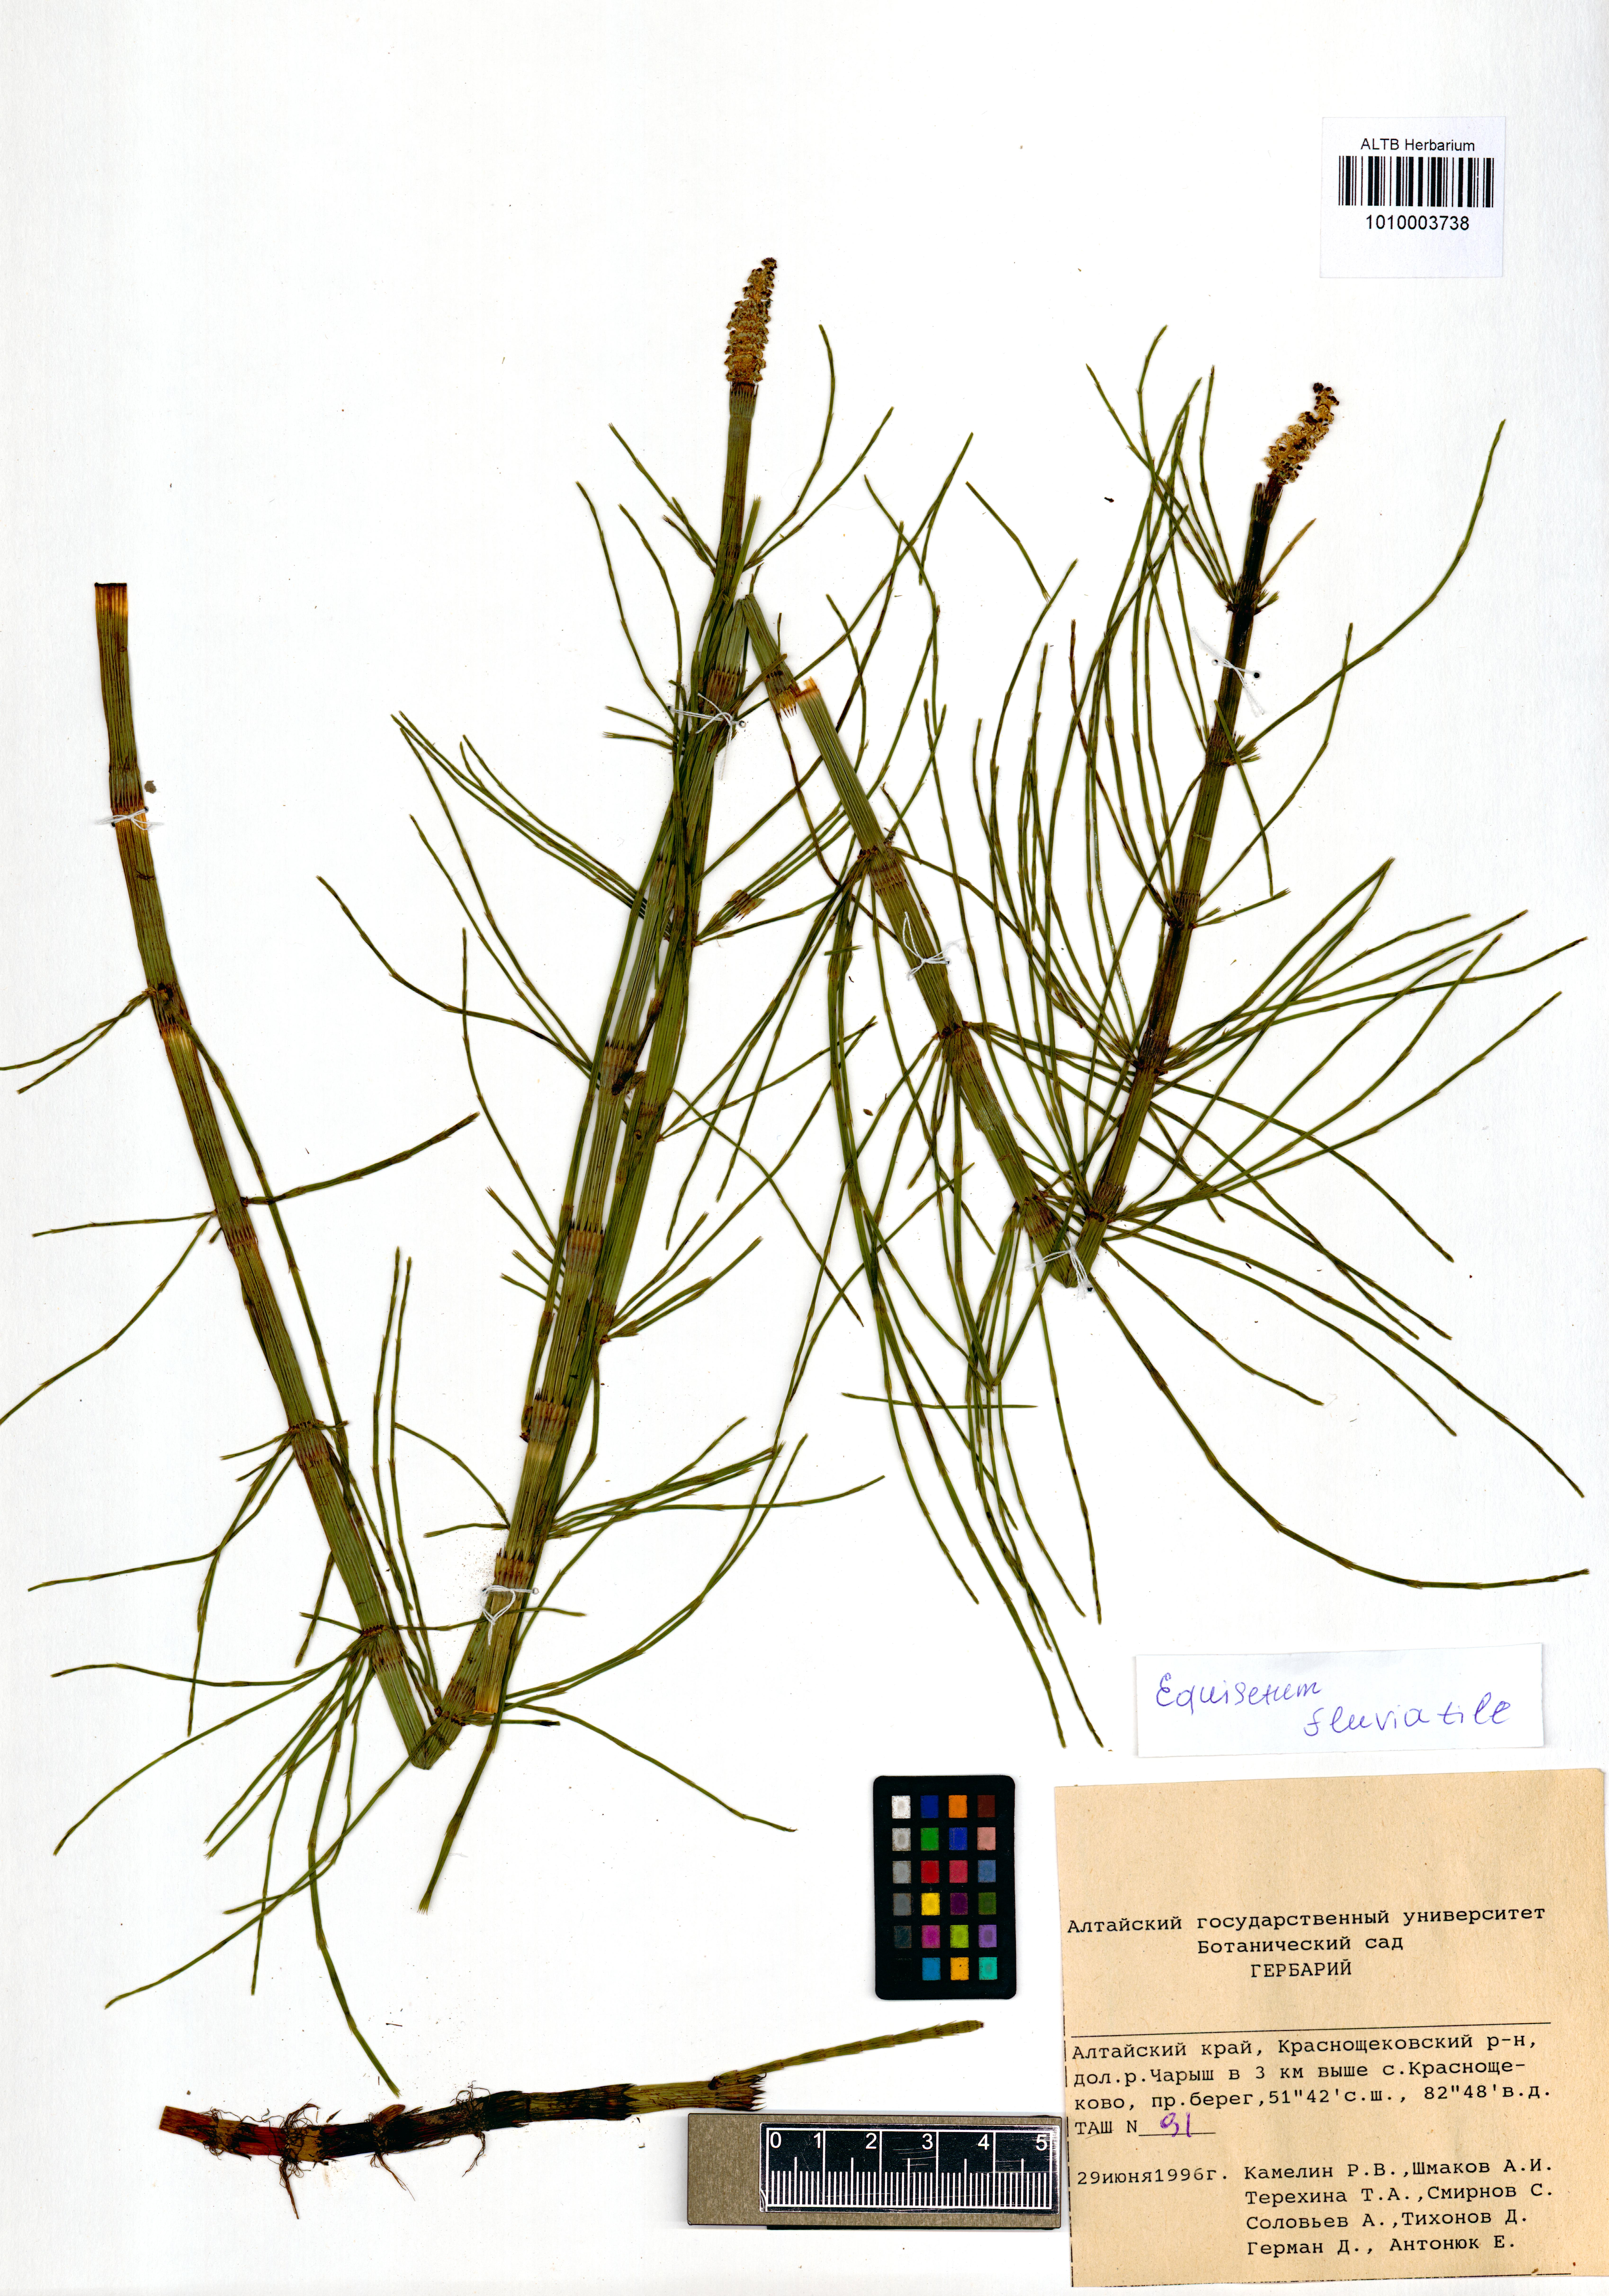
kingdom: Plantae
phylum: Tracheophyta
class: Polypodiopsida
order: Equisetales
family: Equisetaceae
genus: Equisetum
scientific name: Equisetum fluviatile
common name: Water horsetail
